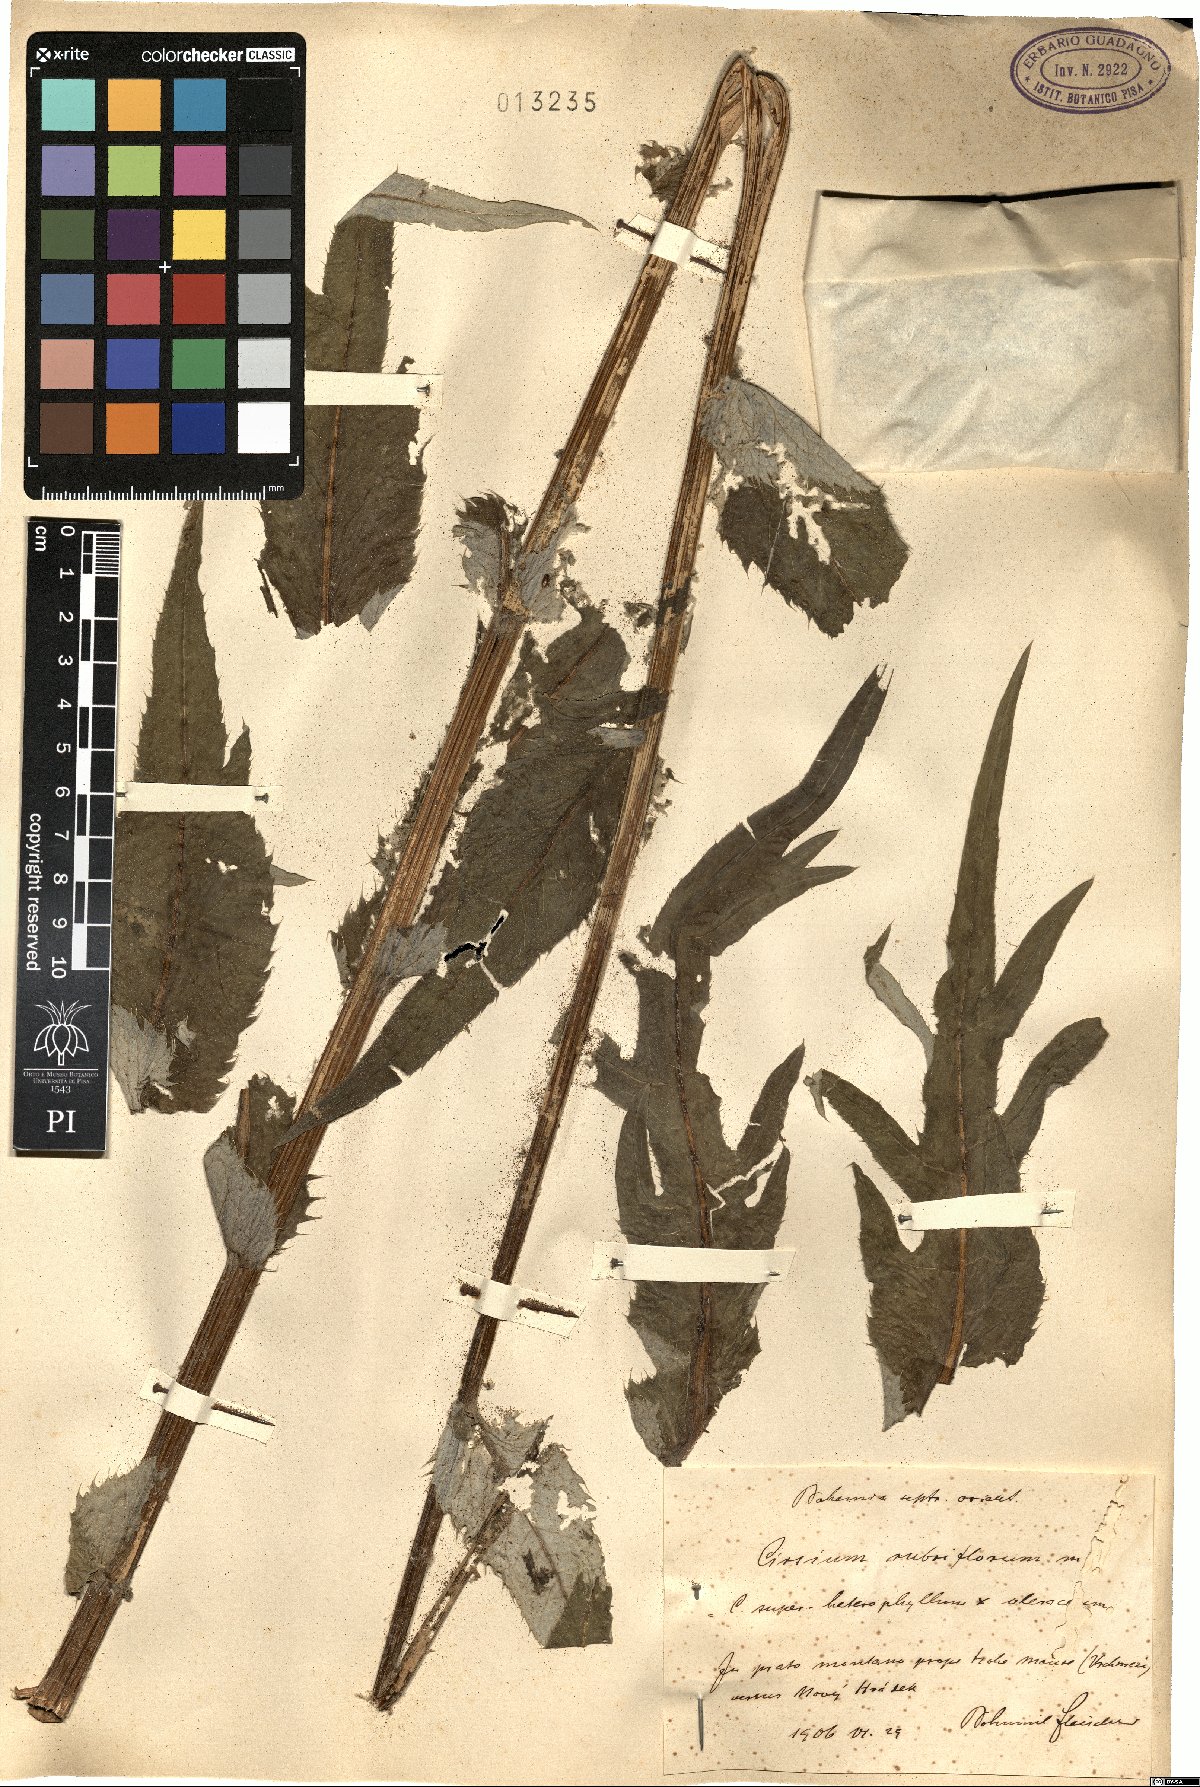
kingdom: Plantae
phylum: Tracheophyta
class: Magnoliopsida
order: Asterales
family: Asteraceae
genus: Cirsium
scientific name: Cirsium rubriflorum
